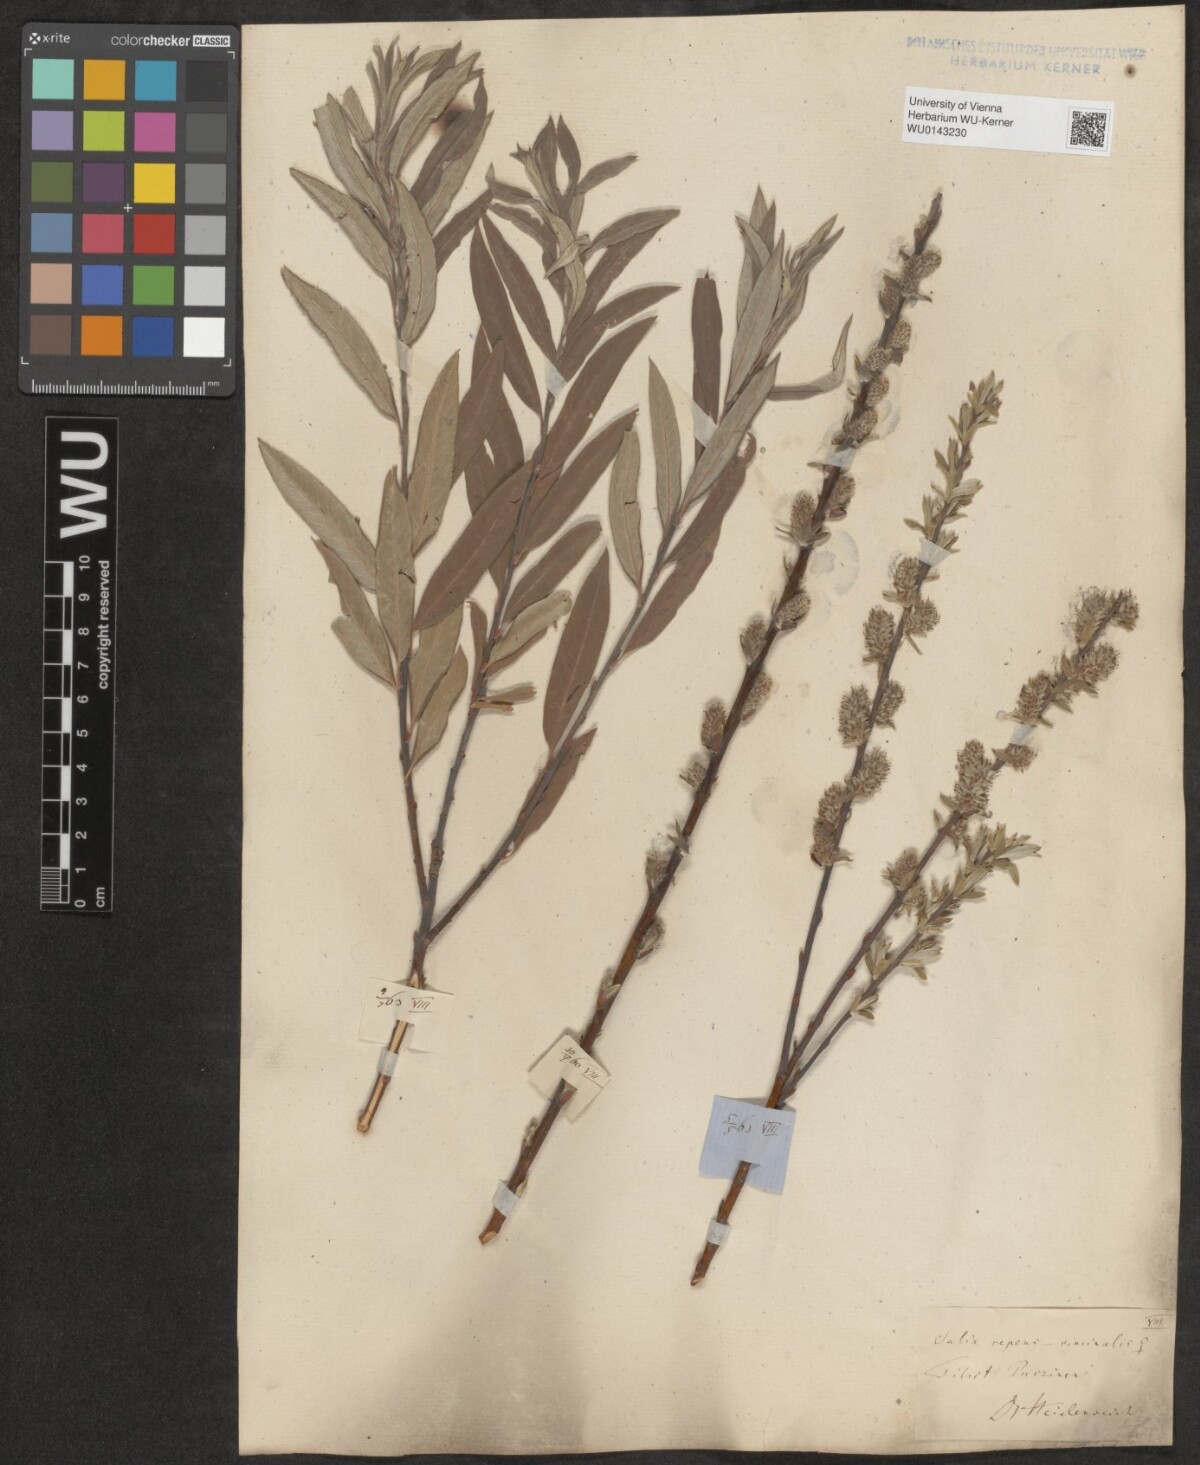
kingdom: Plantae
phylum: Tracheophyta
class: Magnoliopsida
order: Malpighiales
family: Salicaceae
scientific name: Salicaceae
